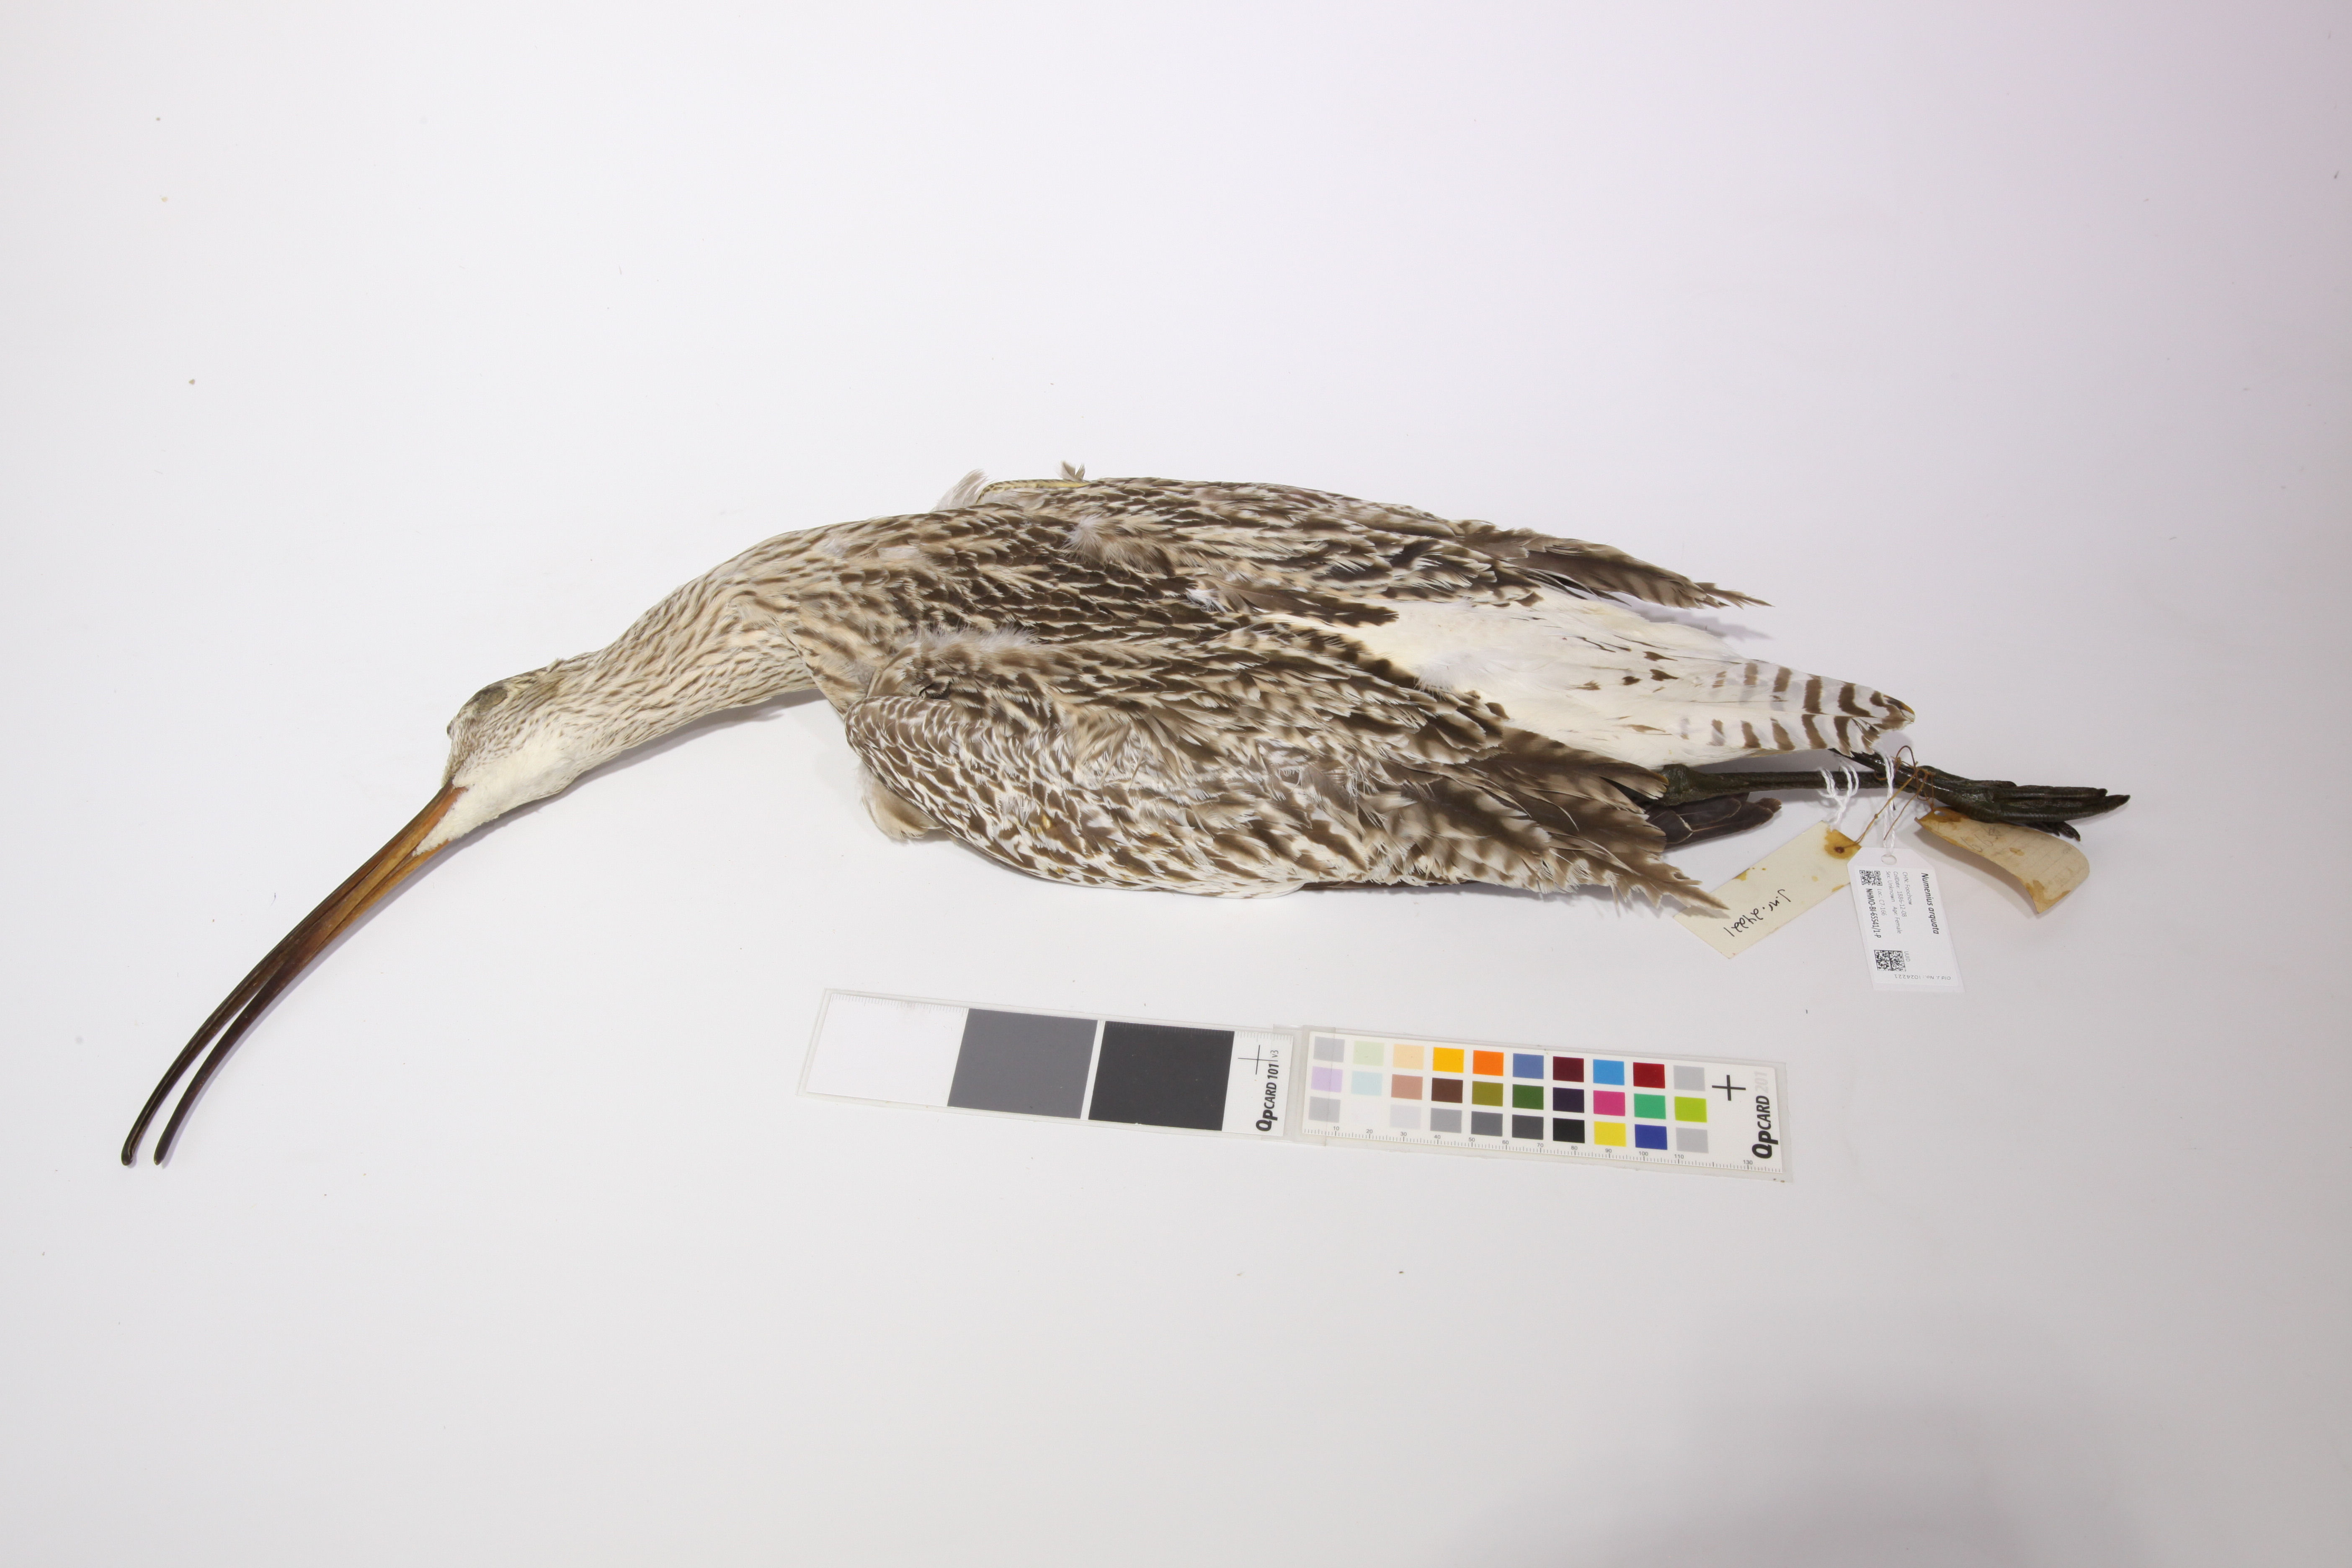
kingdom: Animalia
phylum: Chordata
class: Aves
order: Charadriiformes
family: Scolopacidae
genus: Numenius
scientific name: Numenius arquata
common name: Eurasian curlew
